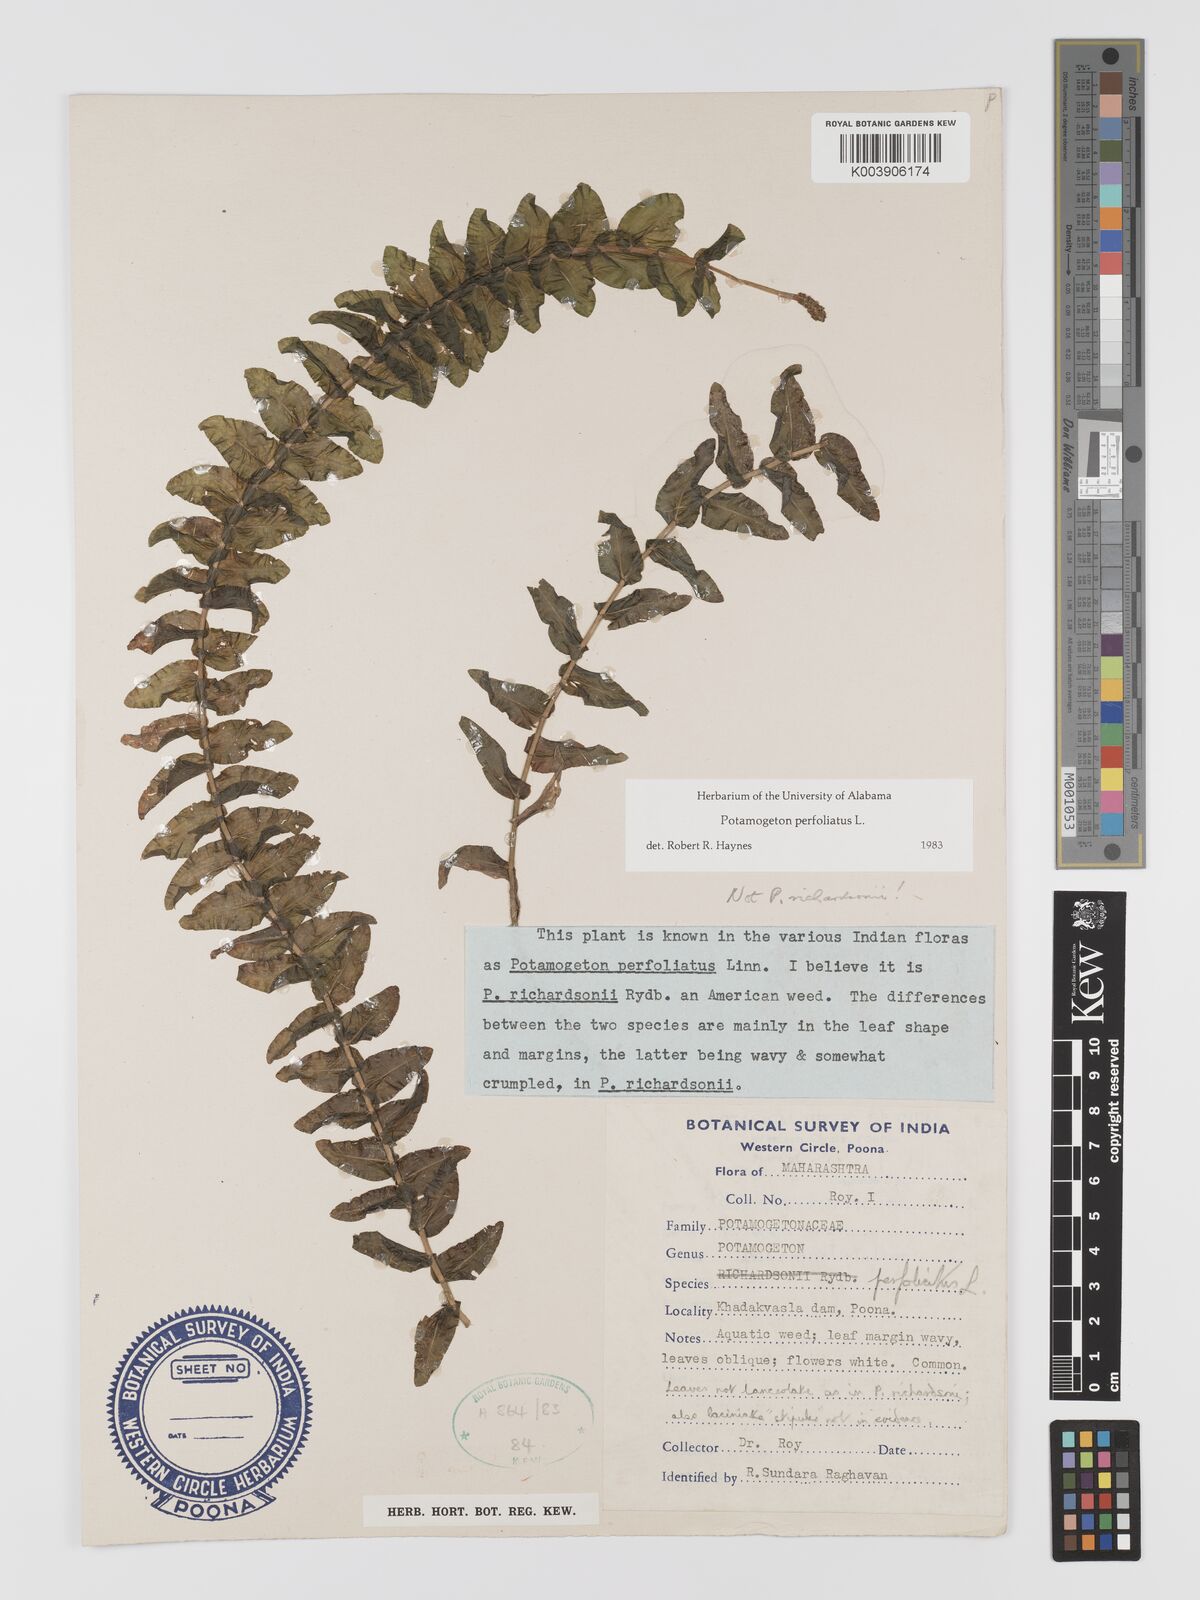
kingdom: Plantae
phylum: Tracheophyta
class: Liliopsida
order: Alismatales
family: Potamogetonaceae
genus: Potamogeton
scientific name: Potamogeton perfoliatus
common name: Perfoliate pondweed
